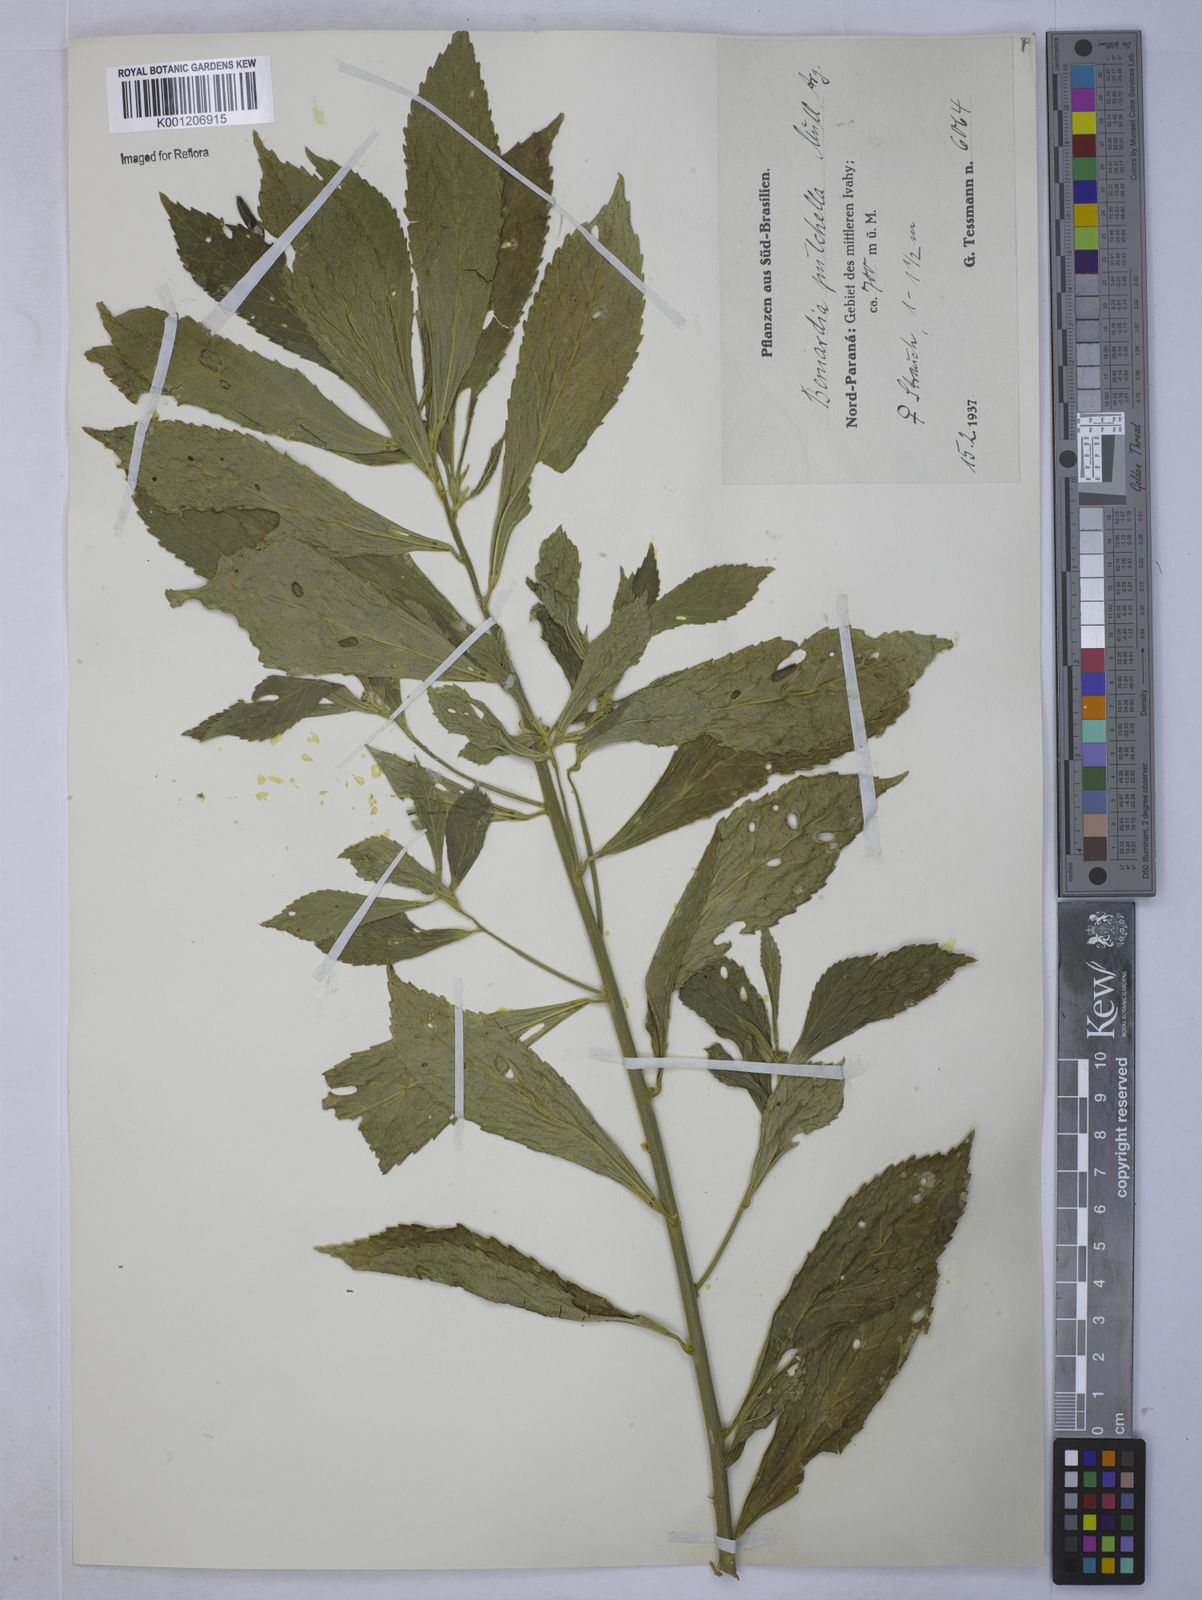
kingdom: Plantae
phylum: Tracheophyta
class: Magnoliopsida
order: Malpighiales
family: Euphorbiaceae
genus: Bernardia
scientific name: Bernardia
